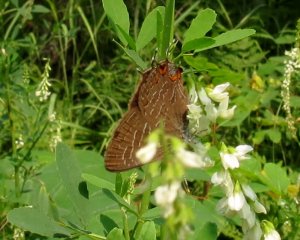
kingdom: Animalia
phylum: Arthropoda
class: Insecta
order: Lepidoptera
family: Lycaenidae
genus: Satyrium
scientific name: Satyrium liparops
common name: Striped Hairstreak
